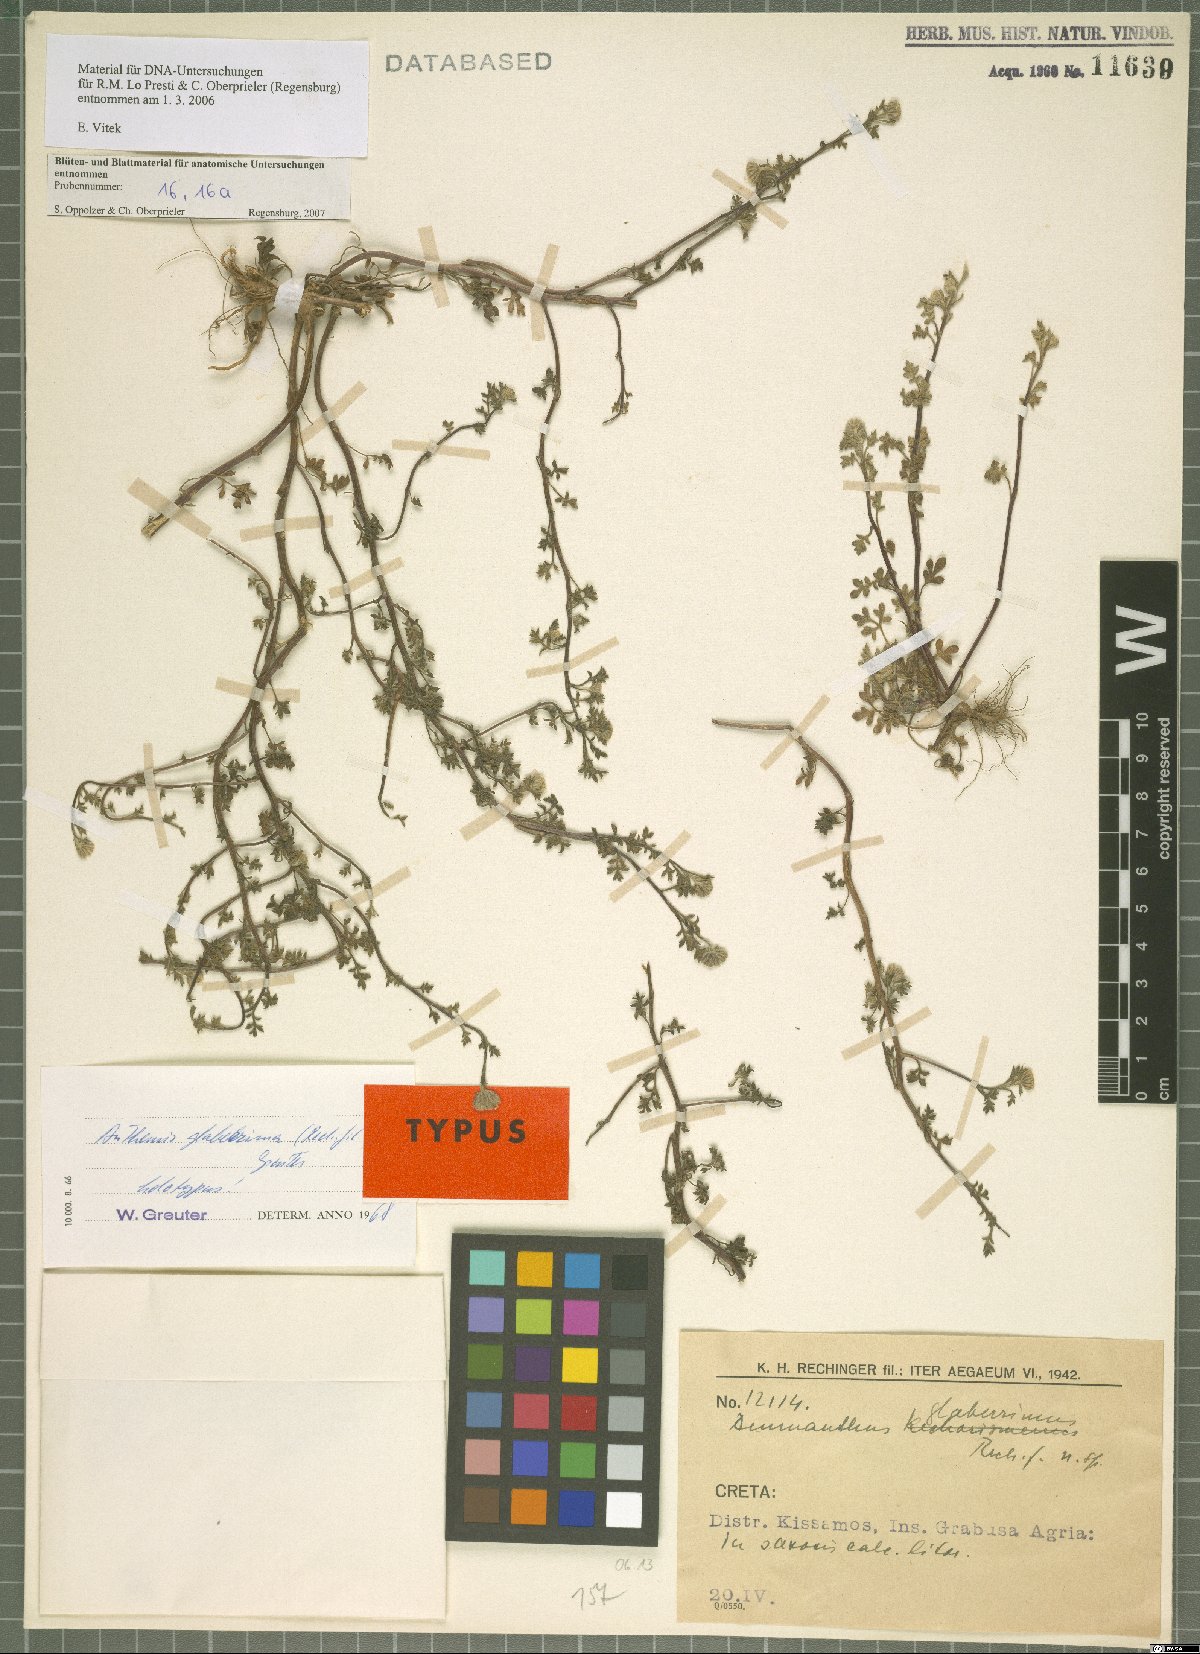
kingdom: Plantae
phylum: Tracheophyta
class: Magnoliopsida
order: Asterales
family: Asteraceae
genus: Anthemis
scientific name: Anthemis glaberrima
